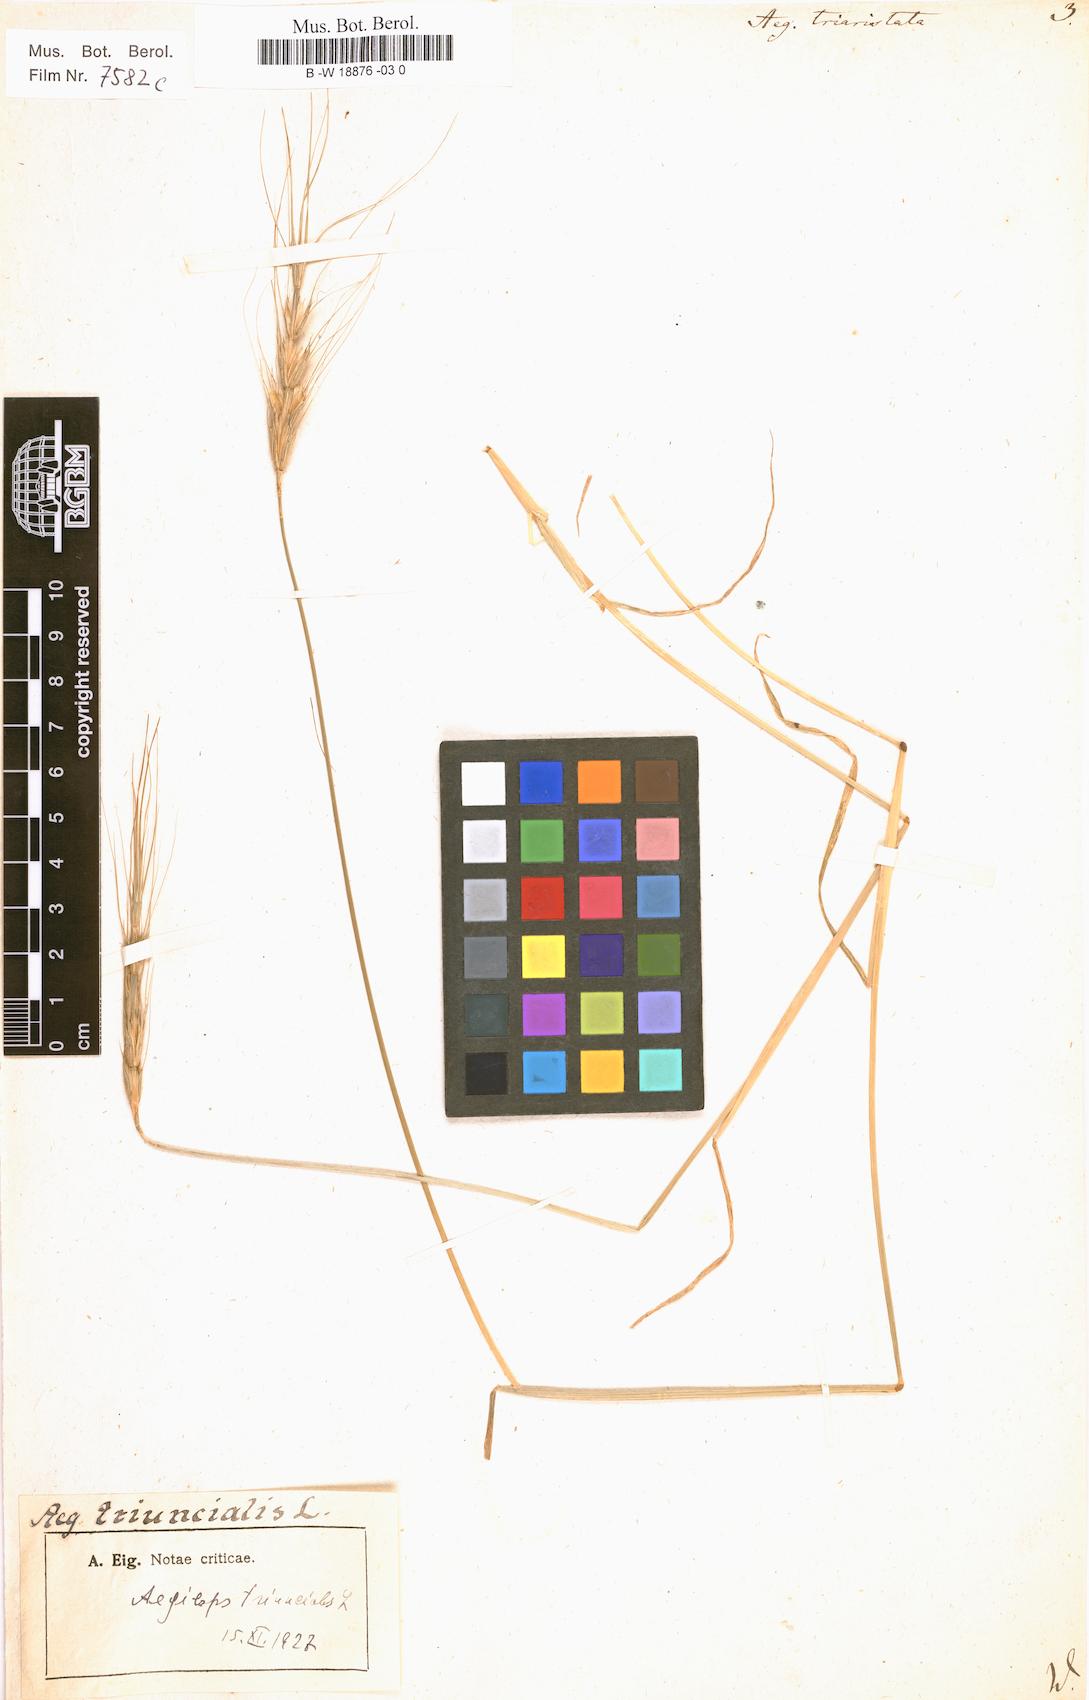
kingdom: Plantae
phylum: Tracheophyta
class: Liliopsida
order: Poales
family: Poaceae
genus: Aegilops
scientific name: Aegilops neglecta
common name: Three-awn goat grass
